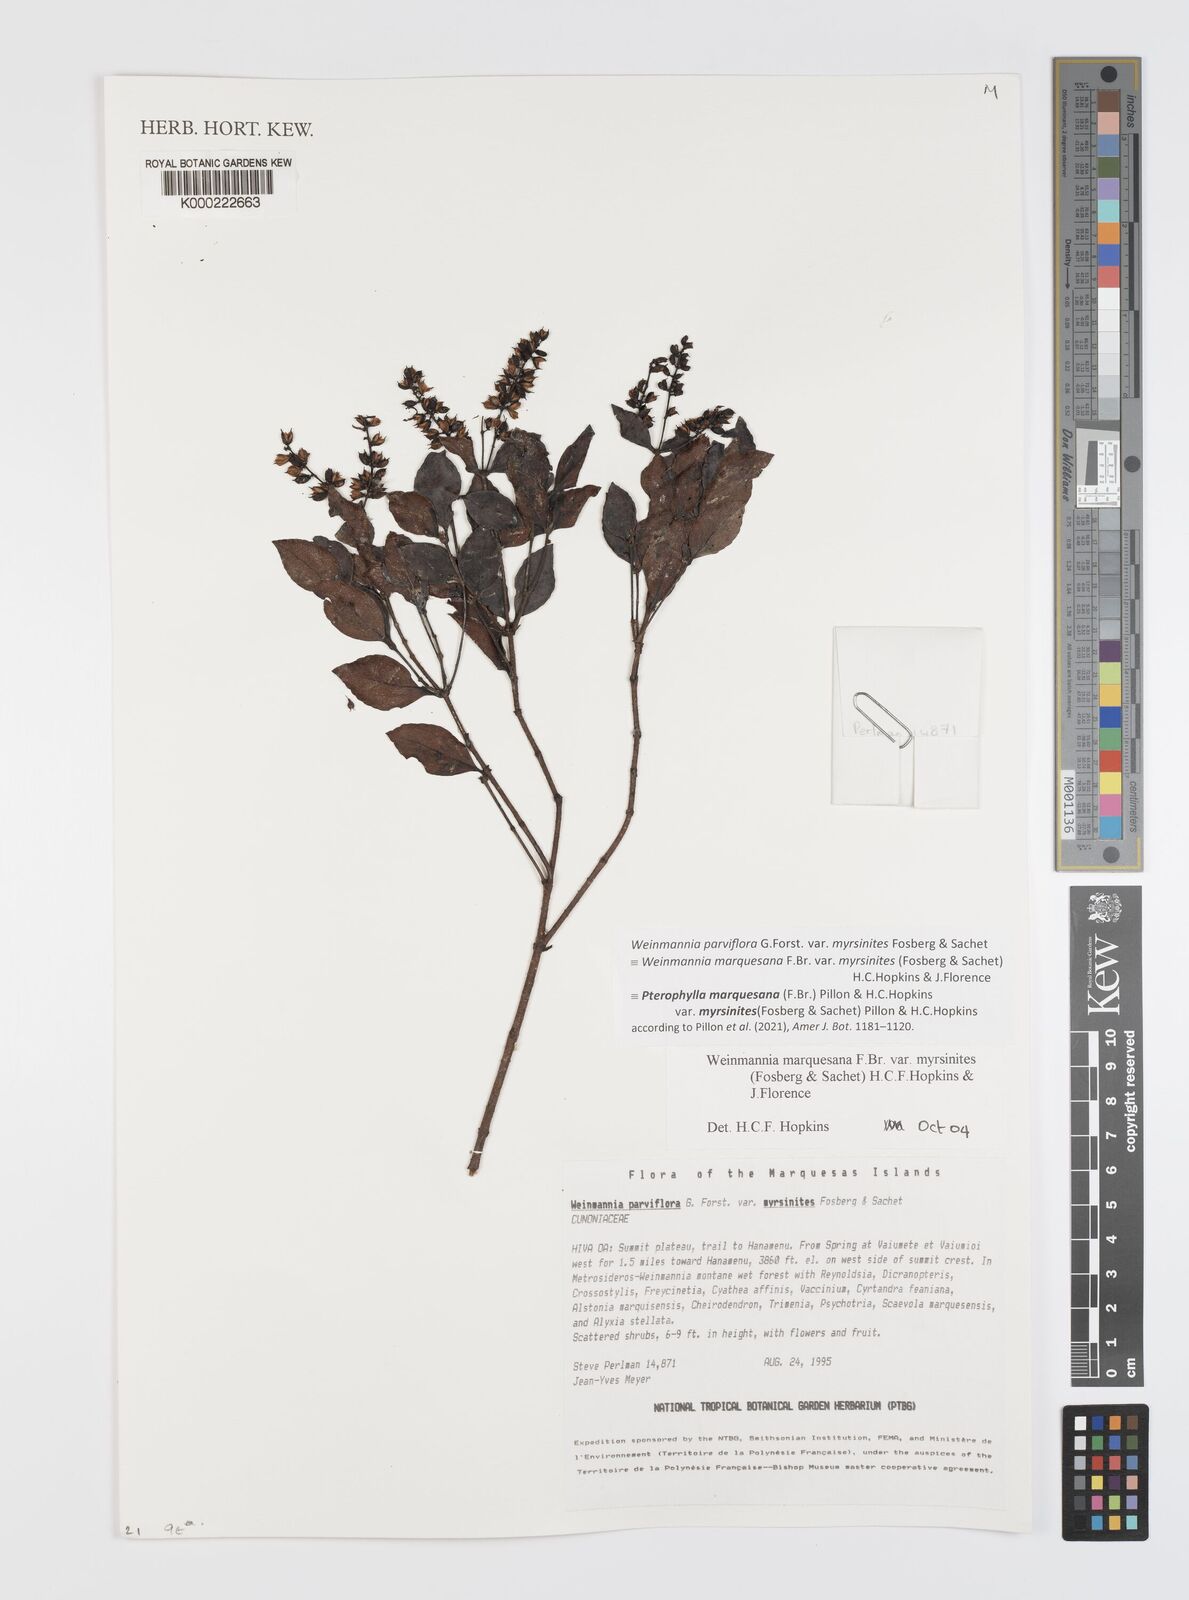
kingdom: Plantae
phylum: Tracheophyta
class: Magnoliopsida
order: Oxalidales
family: Cunoniaceae
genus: Pterophylla
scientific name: Pterophylla marquesana
